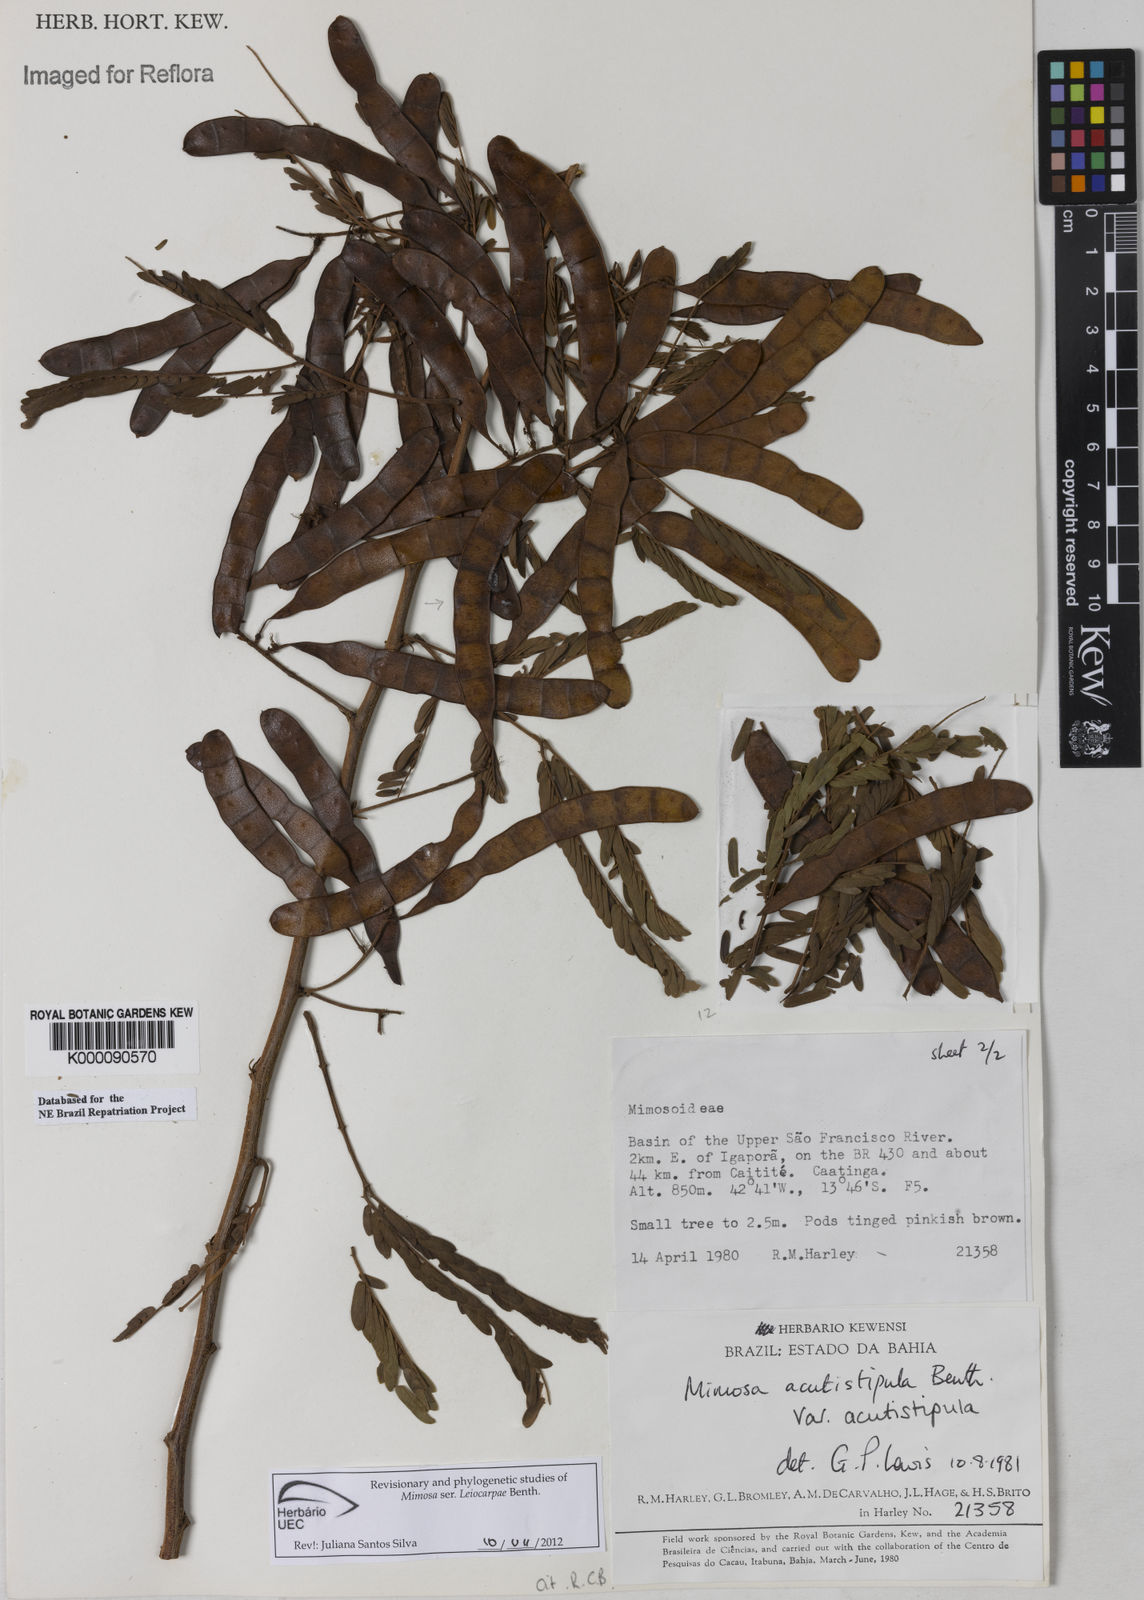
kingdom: Plantae
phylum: Tracheophyta
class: Magnoliopsida
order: Fabales
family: Fabaceae
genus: Mimosa
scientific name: Mimosa acutistipula
